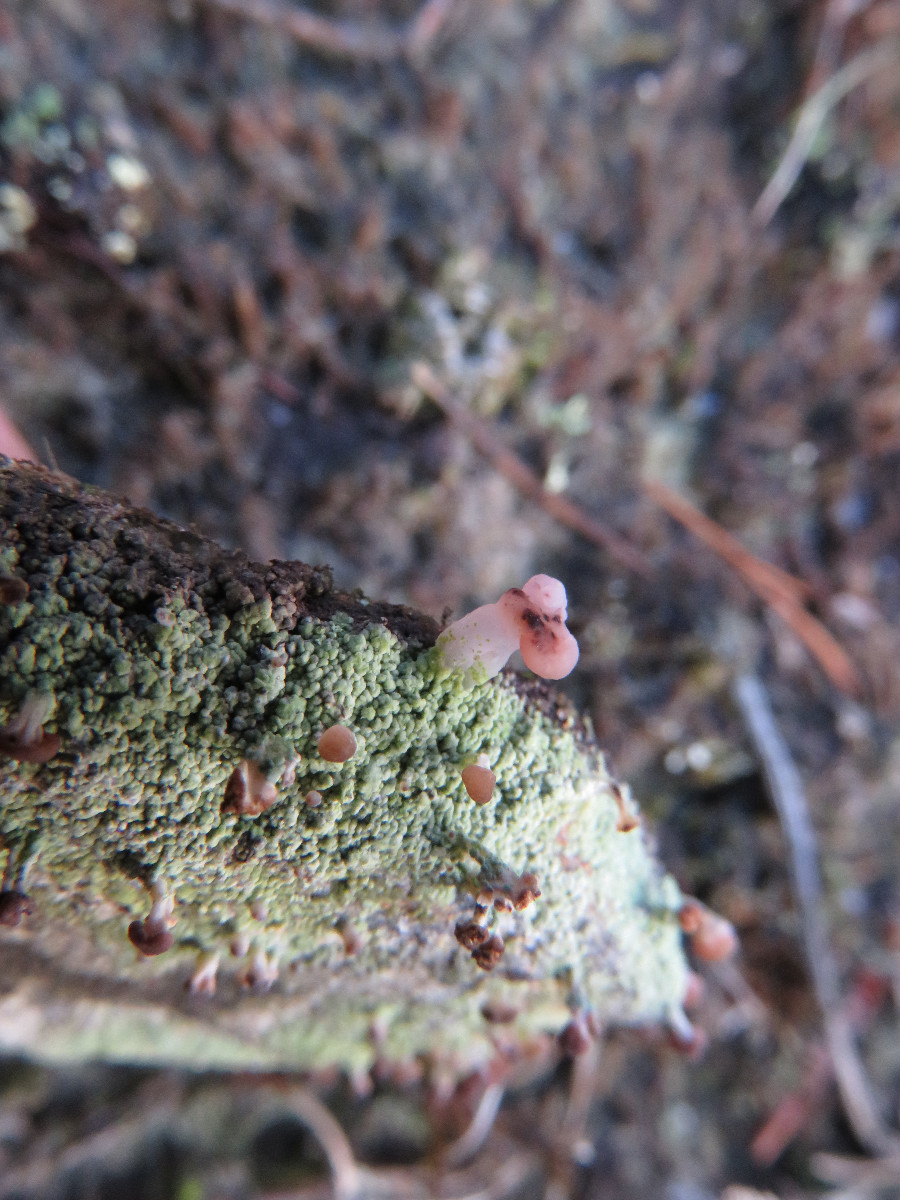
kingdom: Fungi
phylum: Ascomycota
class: Lecanoromycetes
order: Baeomycetales
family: Baeomycetaceae
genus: Baeomyces
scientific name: Baeomyces rufus
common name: rødbrun svampelav
